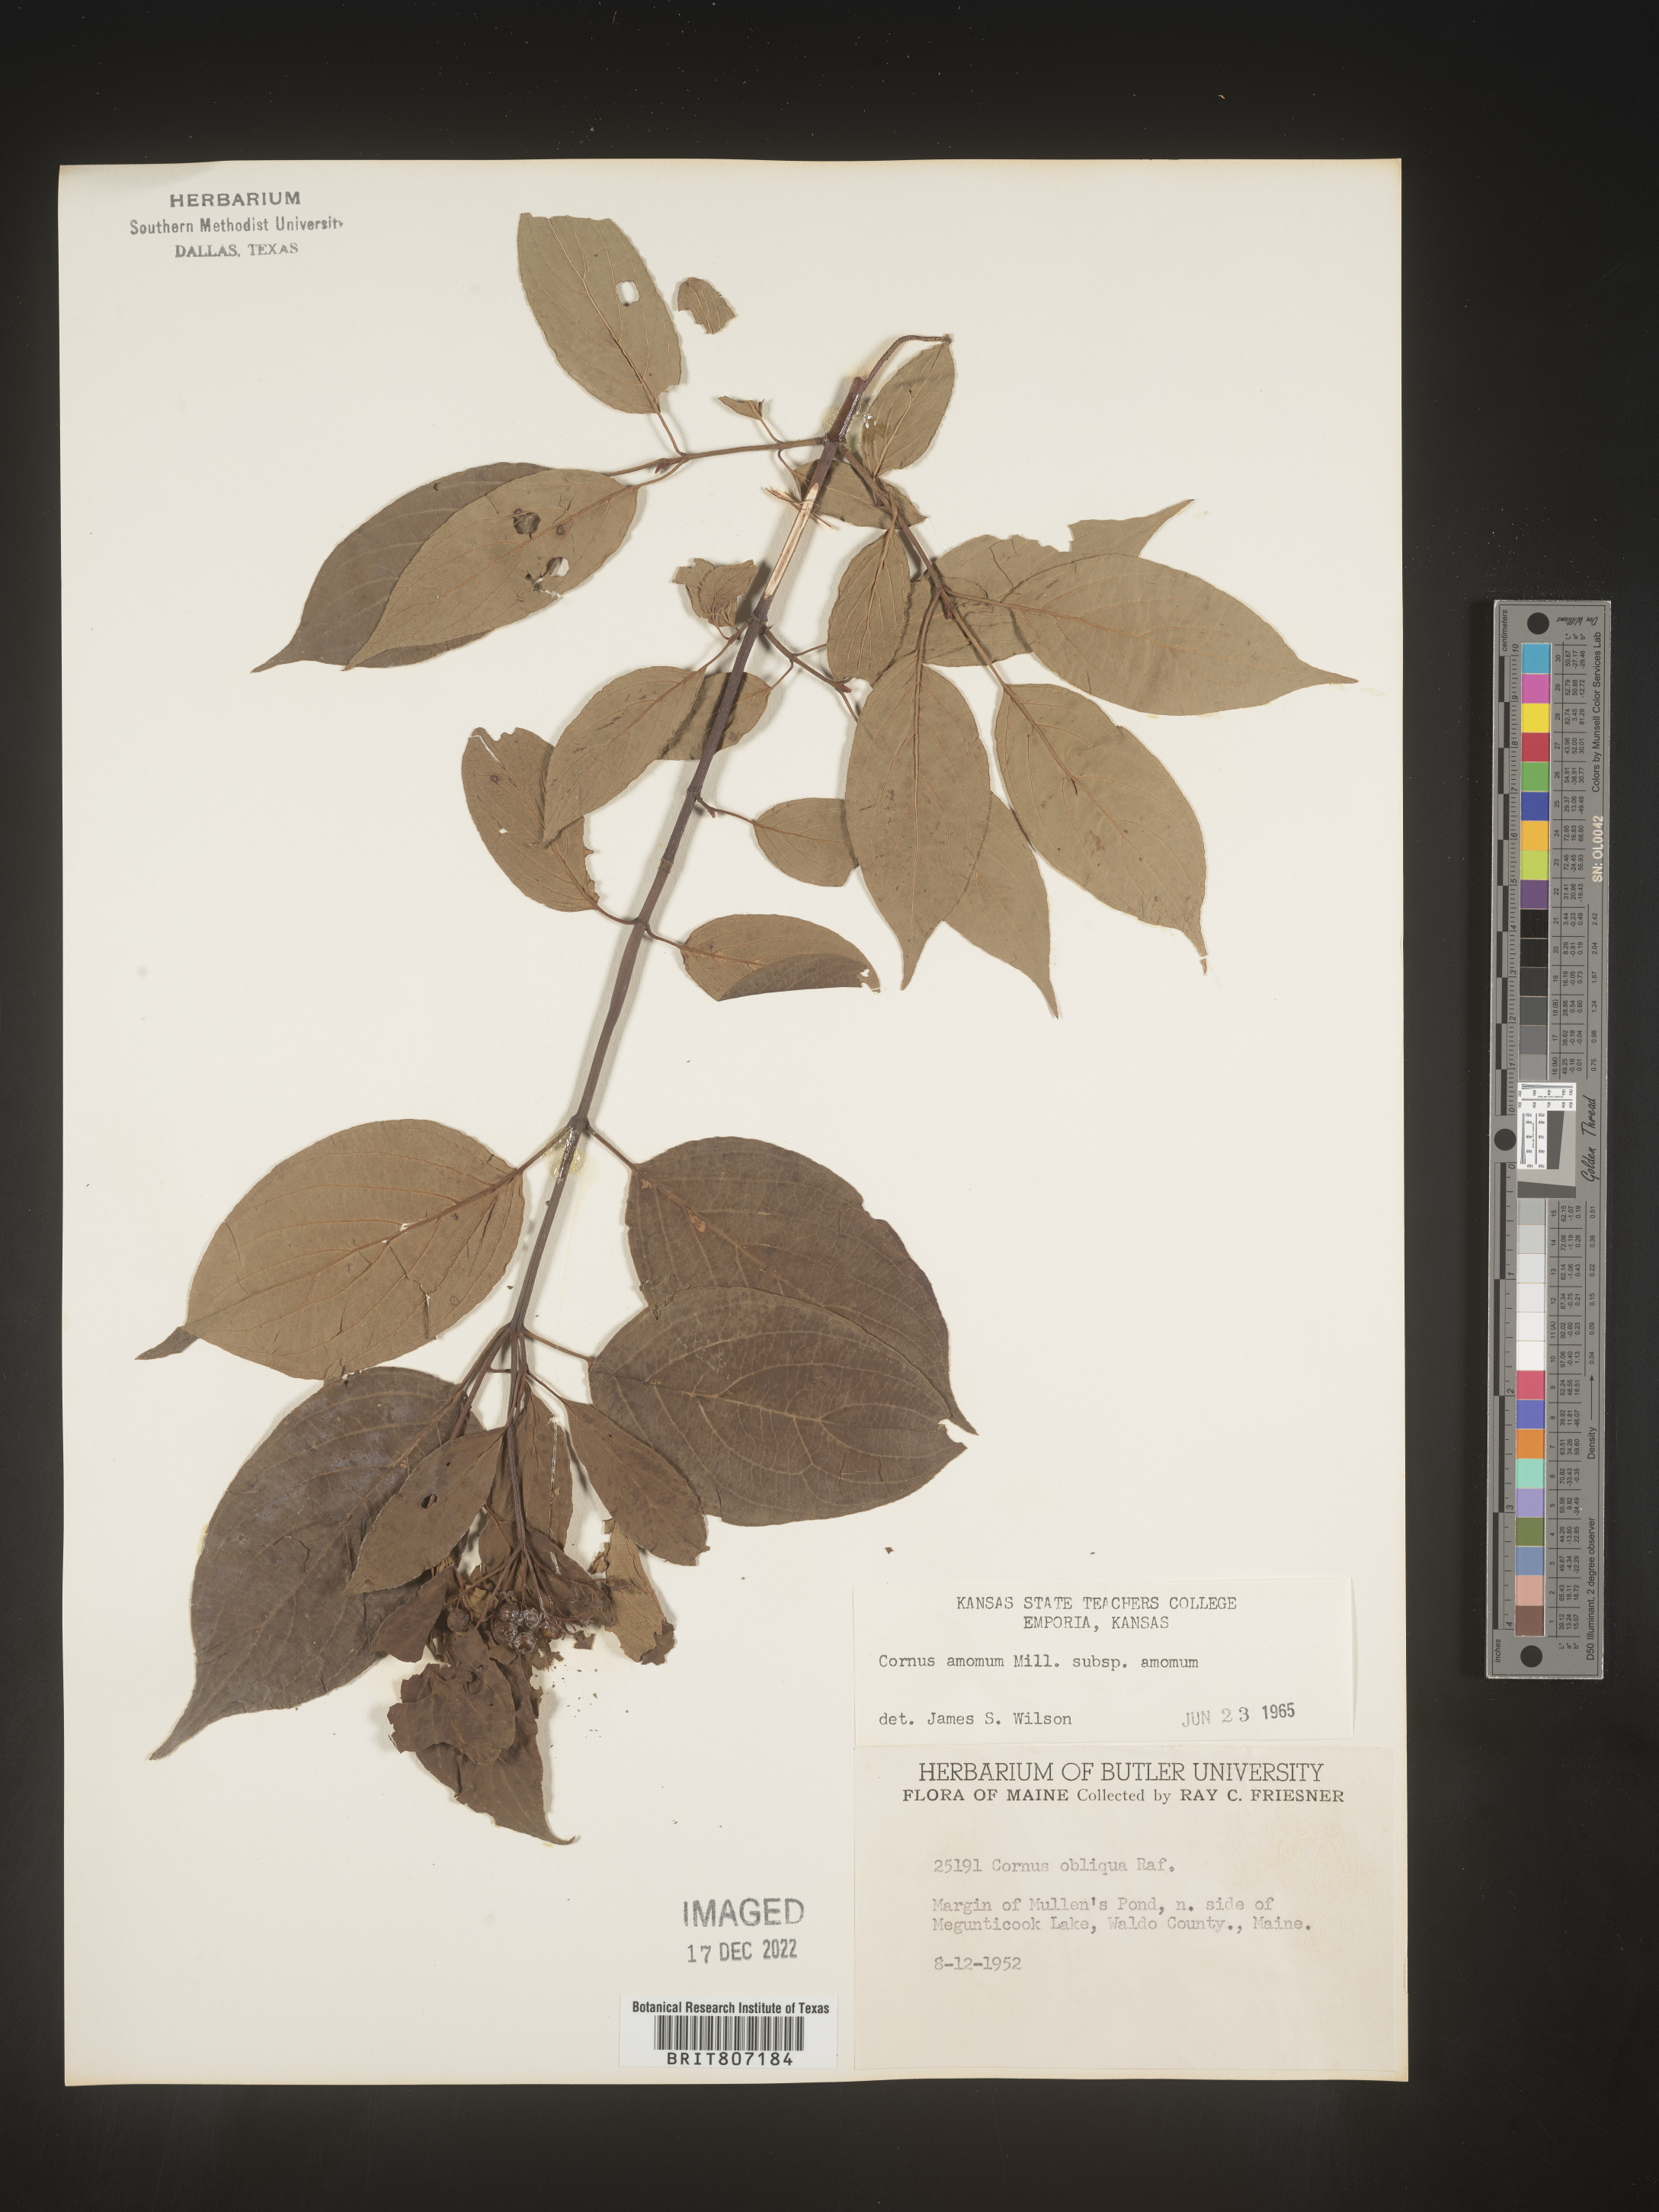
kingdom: Plantae
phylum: Tracheophyta
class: Magnoliopsida
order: Cornales
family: Cornaceae
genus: Cornus
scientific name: Cornus amomum
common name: Silky dogwood
